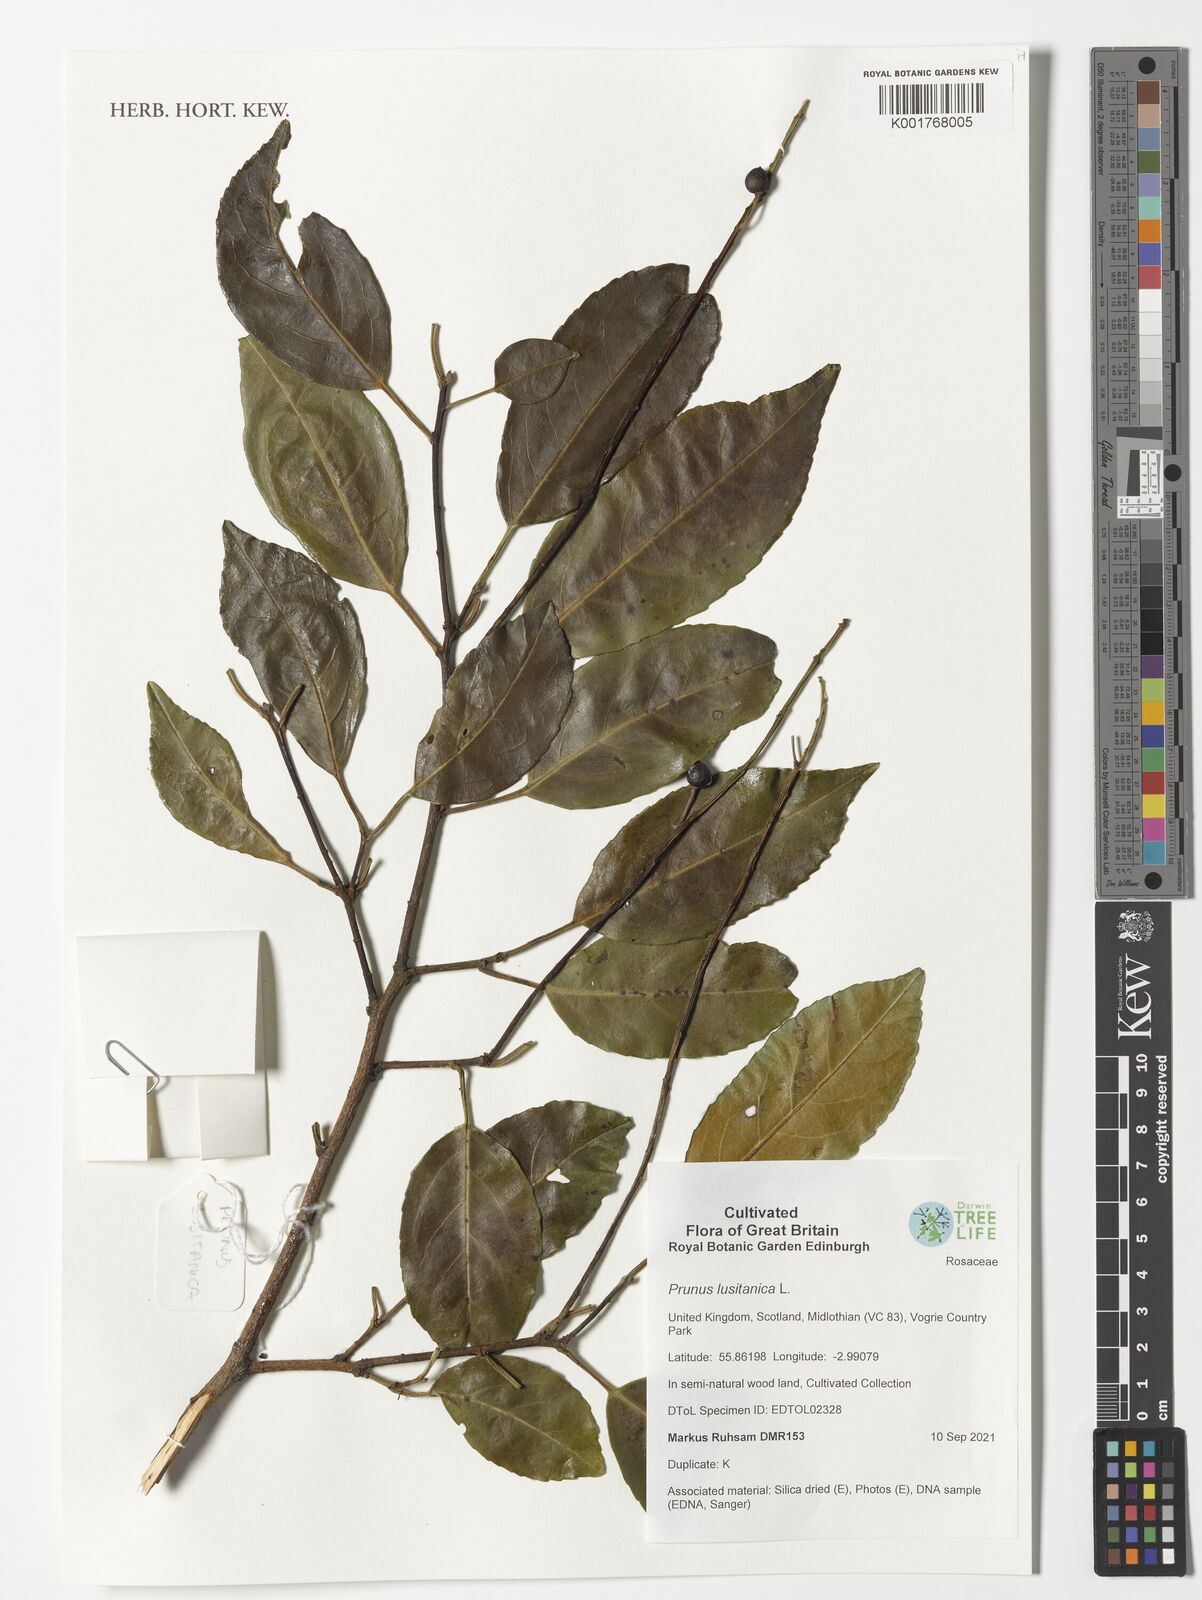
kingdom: Plantae
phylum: Tracheophyta
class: Magnoliopsida
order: Rosales
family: Rosaceae
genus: Prunus
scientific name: Prunus lusitanica
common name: Portugal laurel
